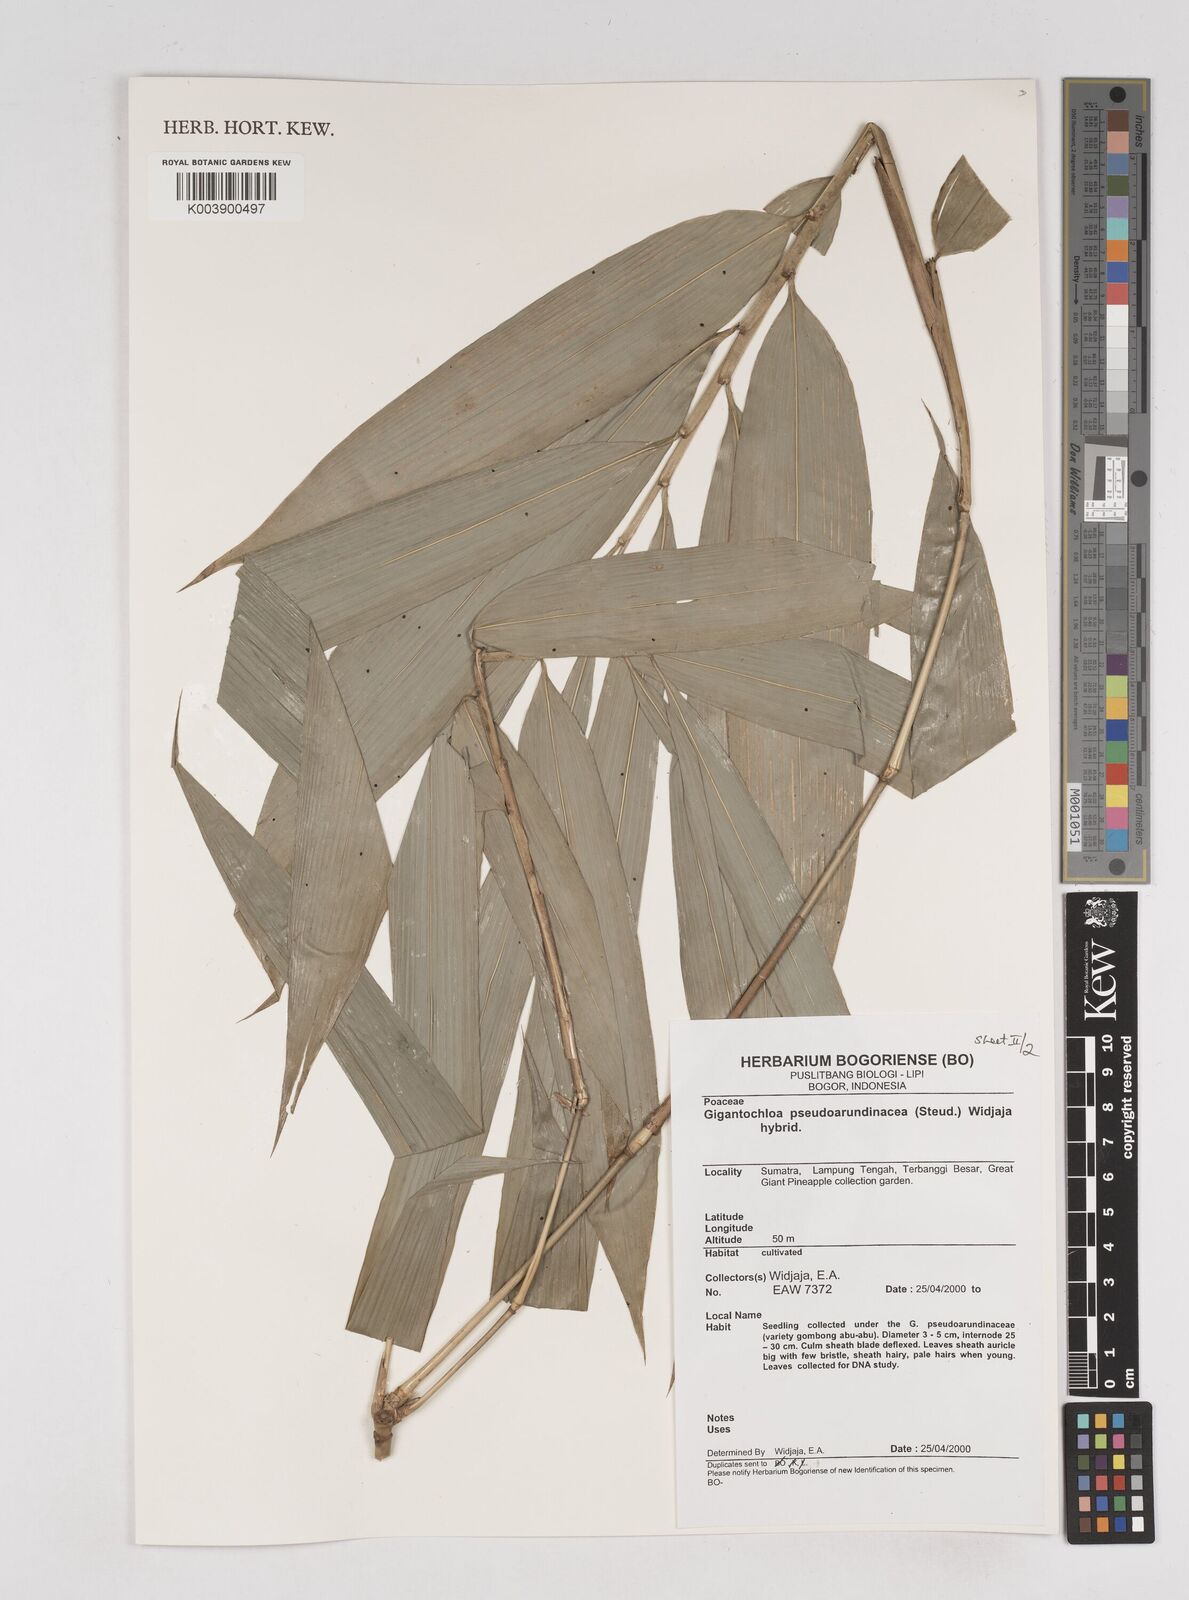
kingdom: Plantae
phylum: Tracheophyta
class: Liliopsida
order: Poales
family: Poaceae
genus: Gigantochloa
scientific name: Gigantochloa verticillata
